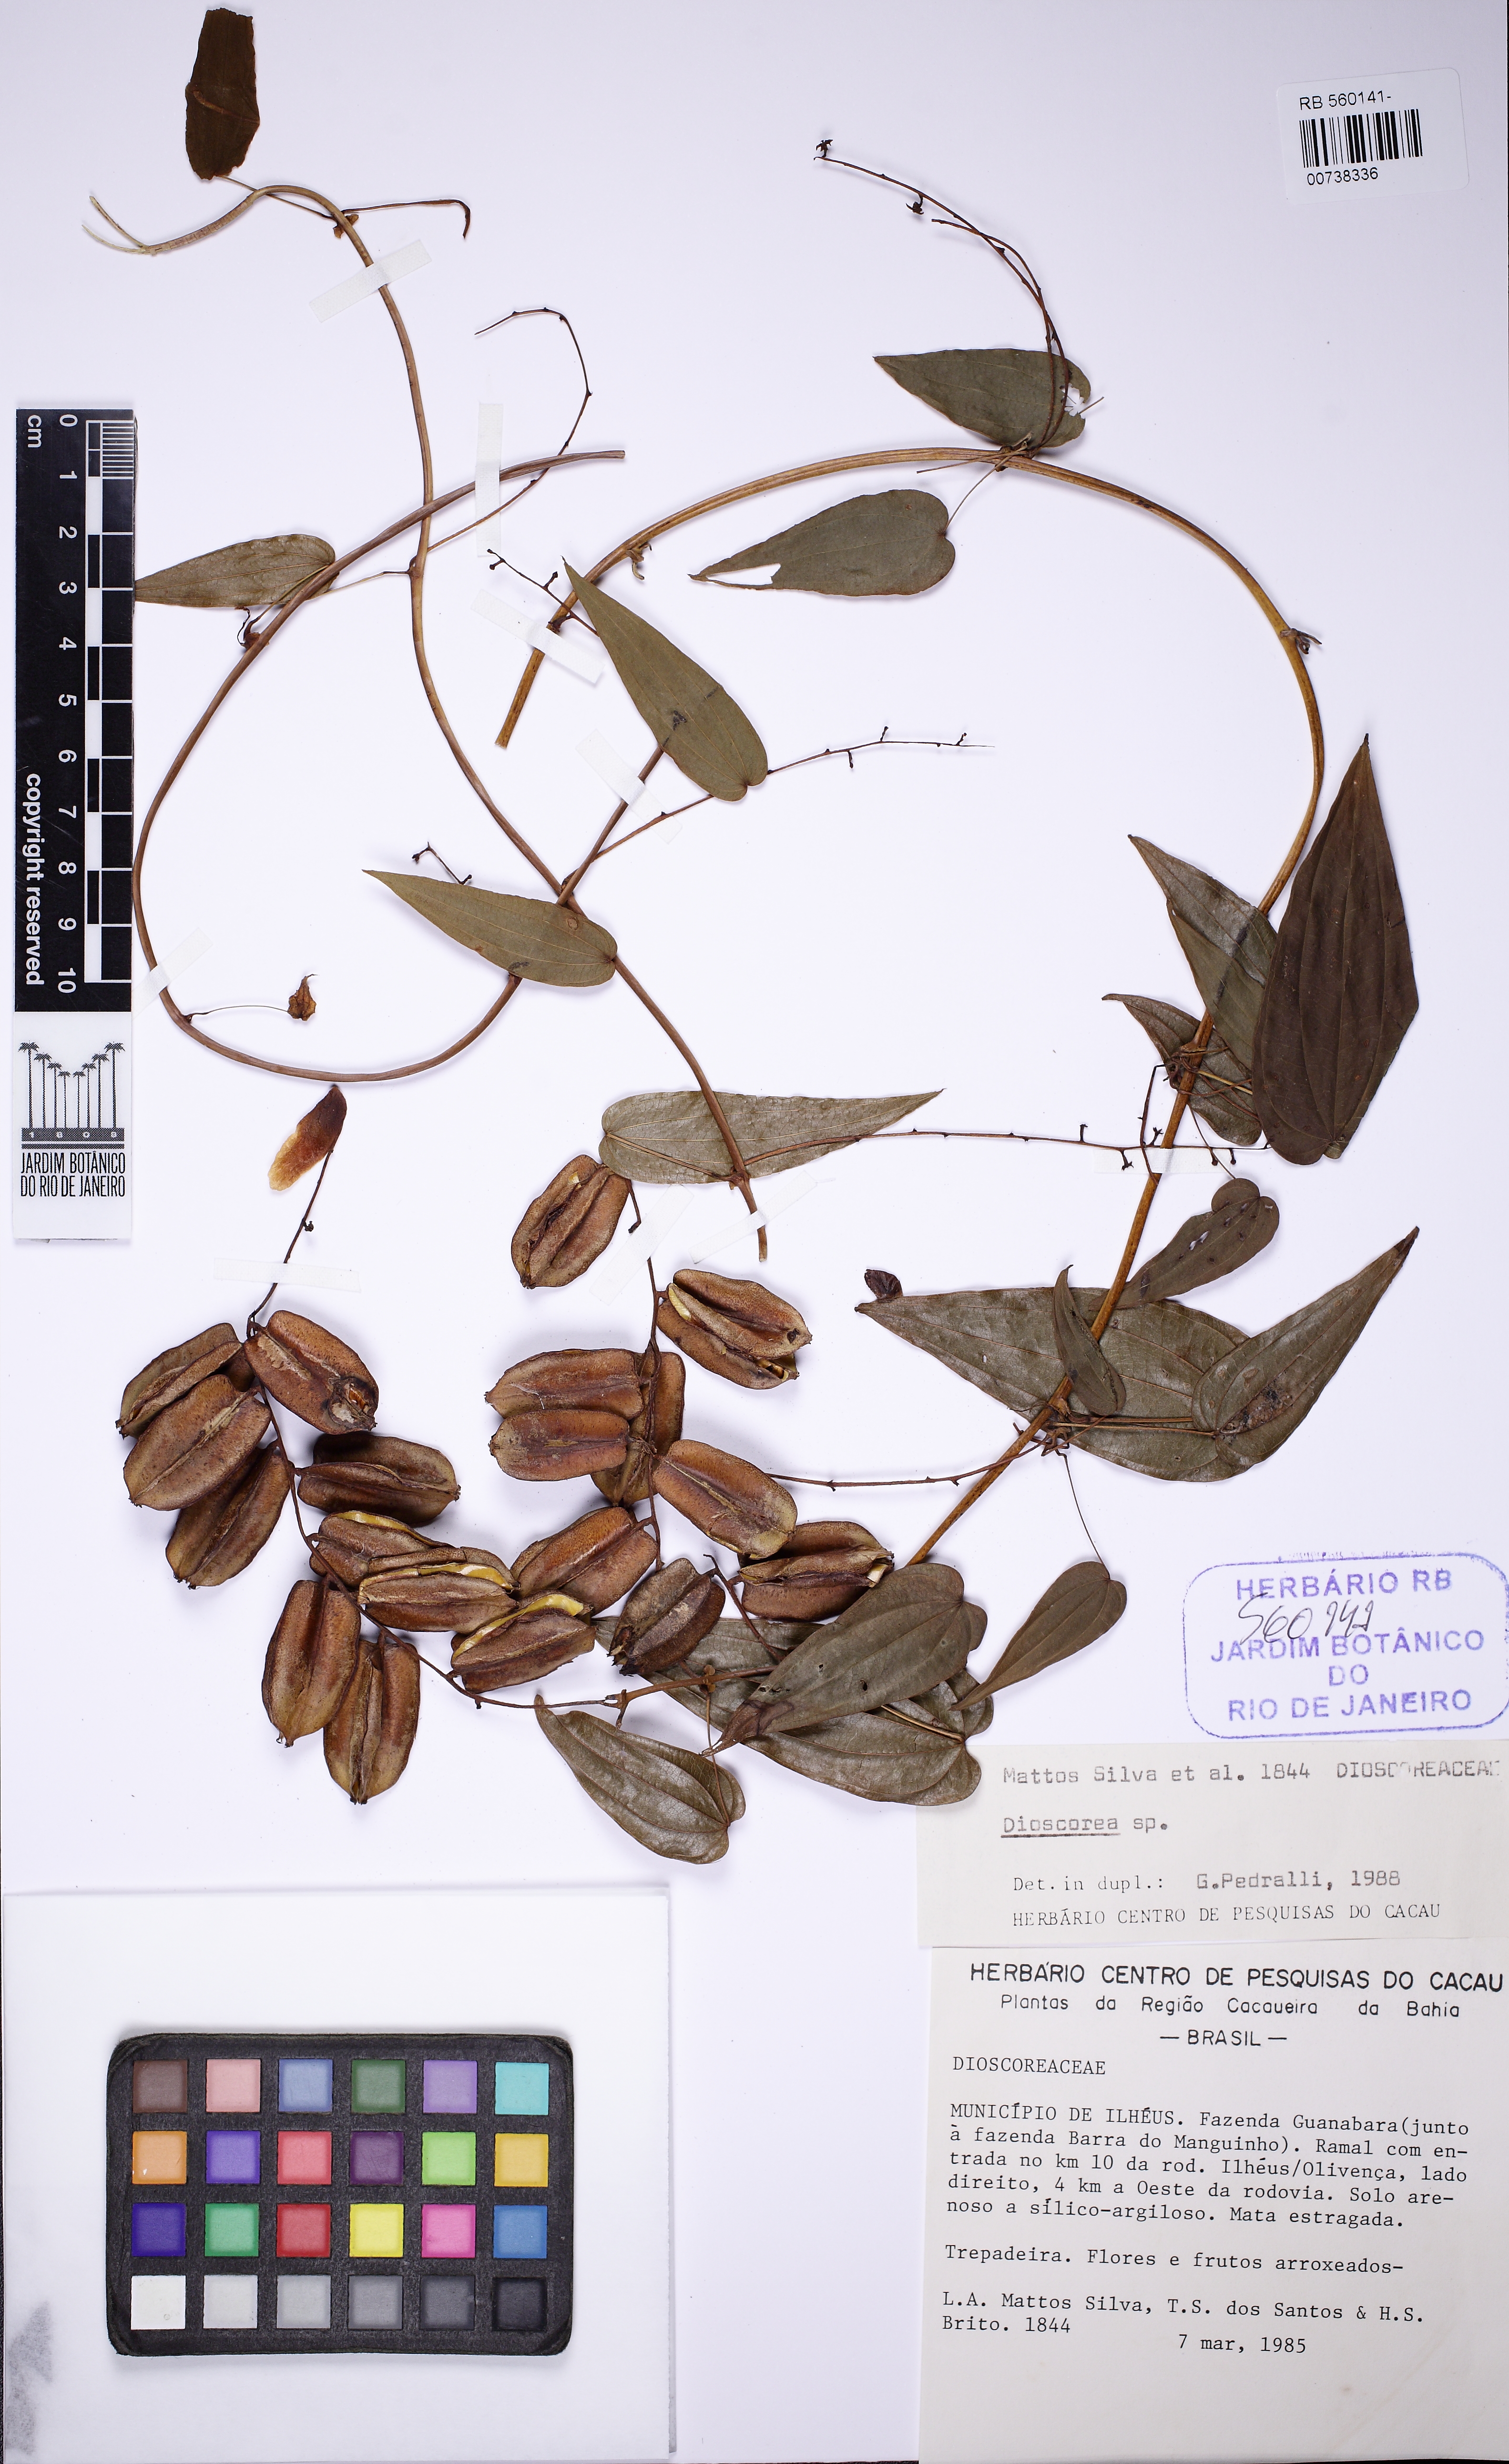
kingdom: Plantae
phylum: Tracheophyta
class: Liliopsida
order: Dioscoreales
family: Dioscoreaceae
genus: Dioscorea
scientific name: Dioscorea planistipulosa
